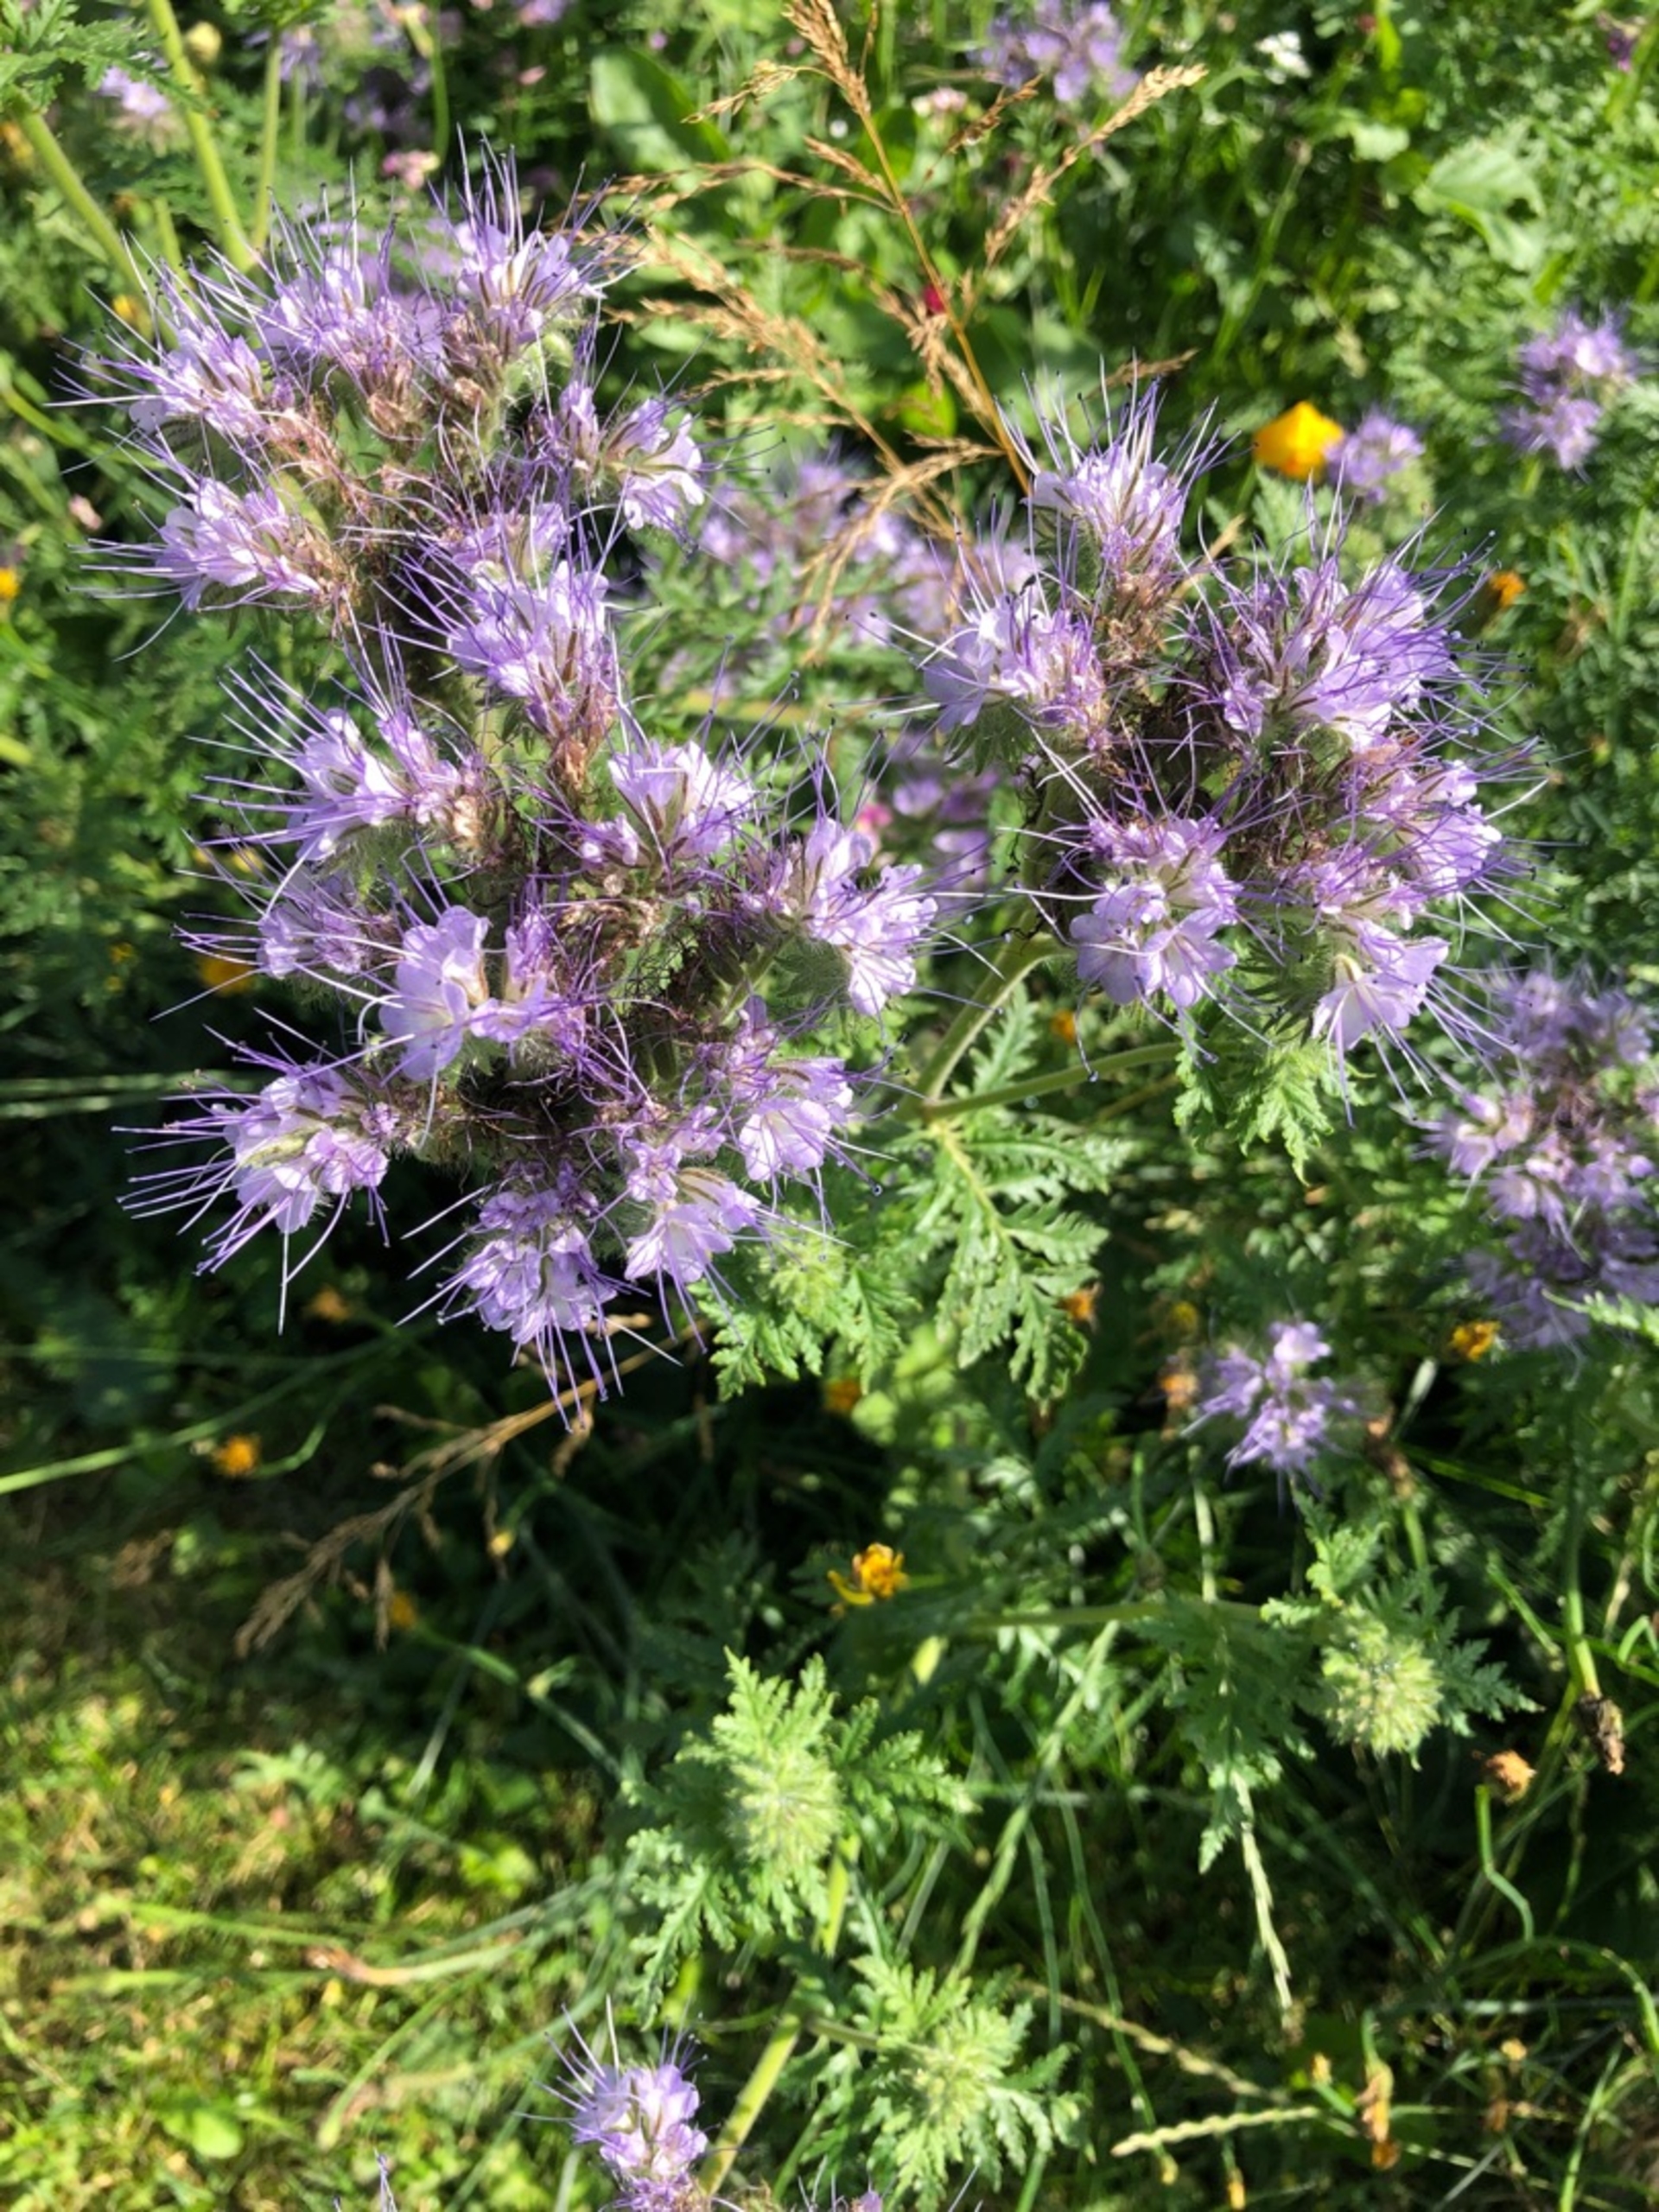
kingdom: Plantae
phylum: Tracheophyta
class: Magnoliopsida
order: Boraginales
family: Hydrophyllaceae
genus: Phacelia
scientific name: Phacelia tanacetifolia
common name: Honningurt
